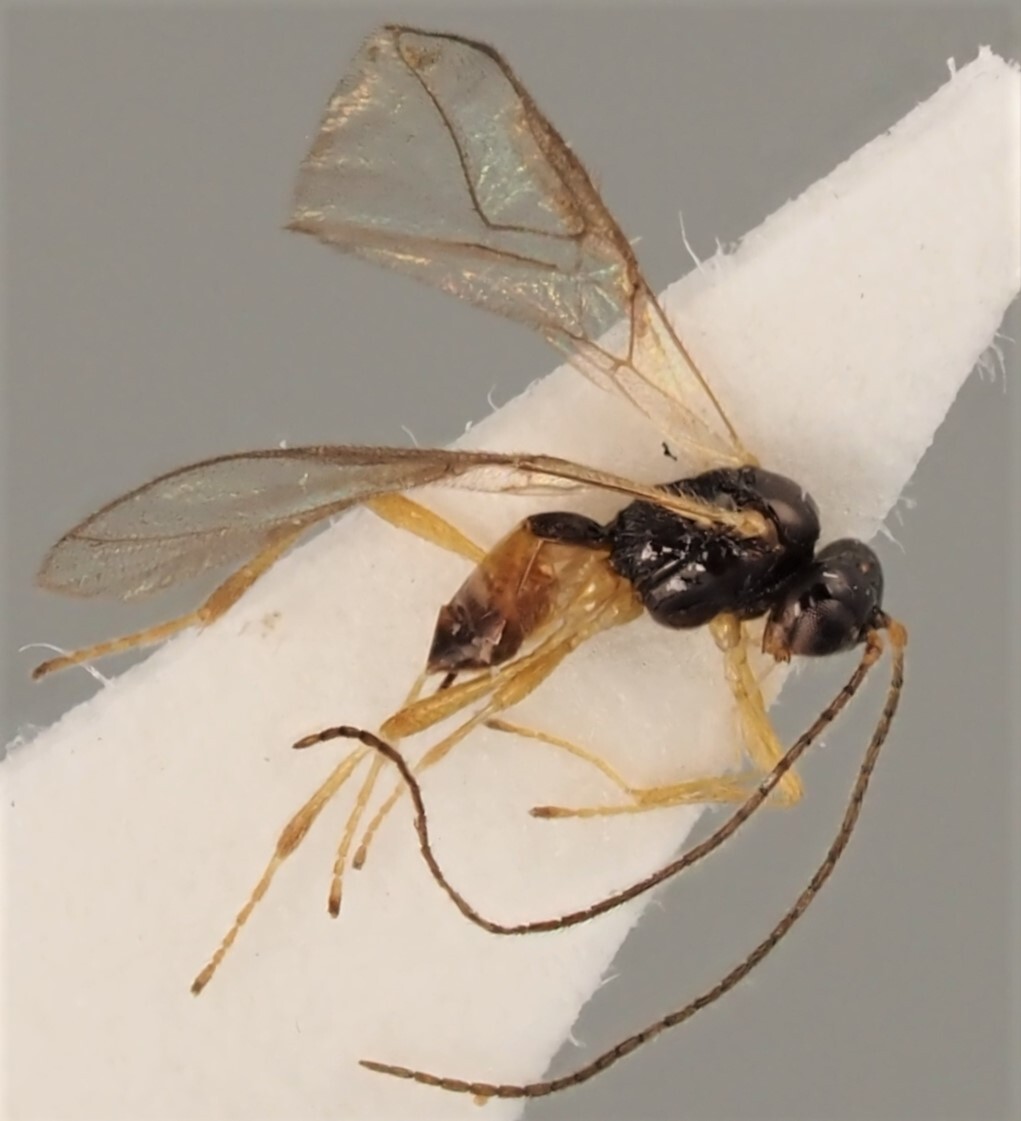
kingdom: Animalia
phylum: Arthropoda
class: Insecta
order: Hymenoptera
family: Braconidae
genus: Bassus
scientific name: Bassus nugax
